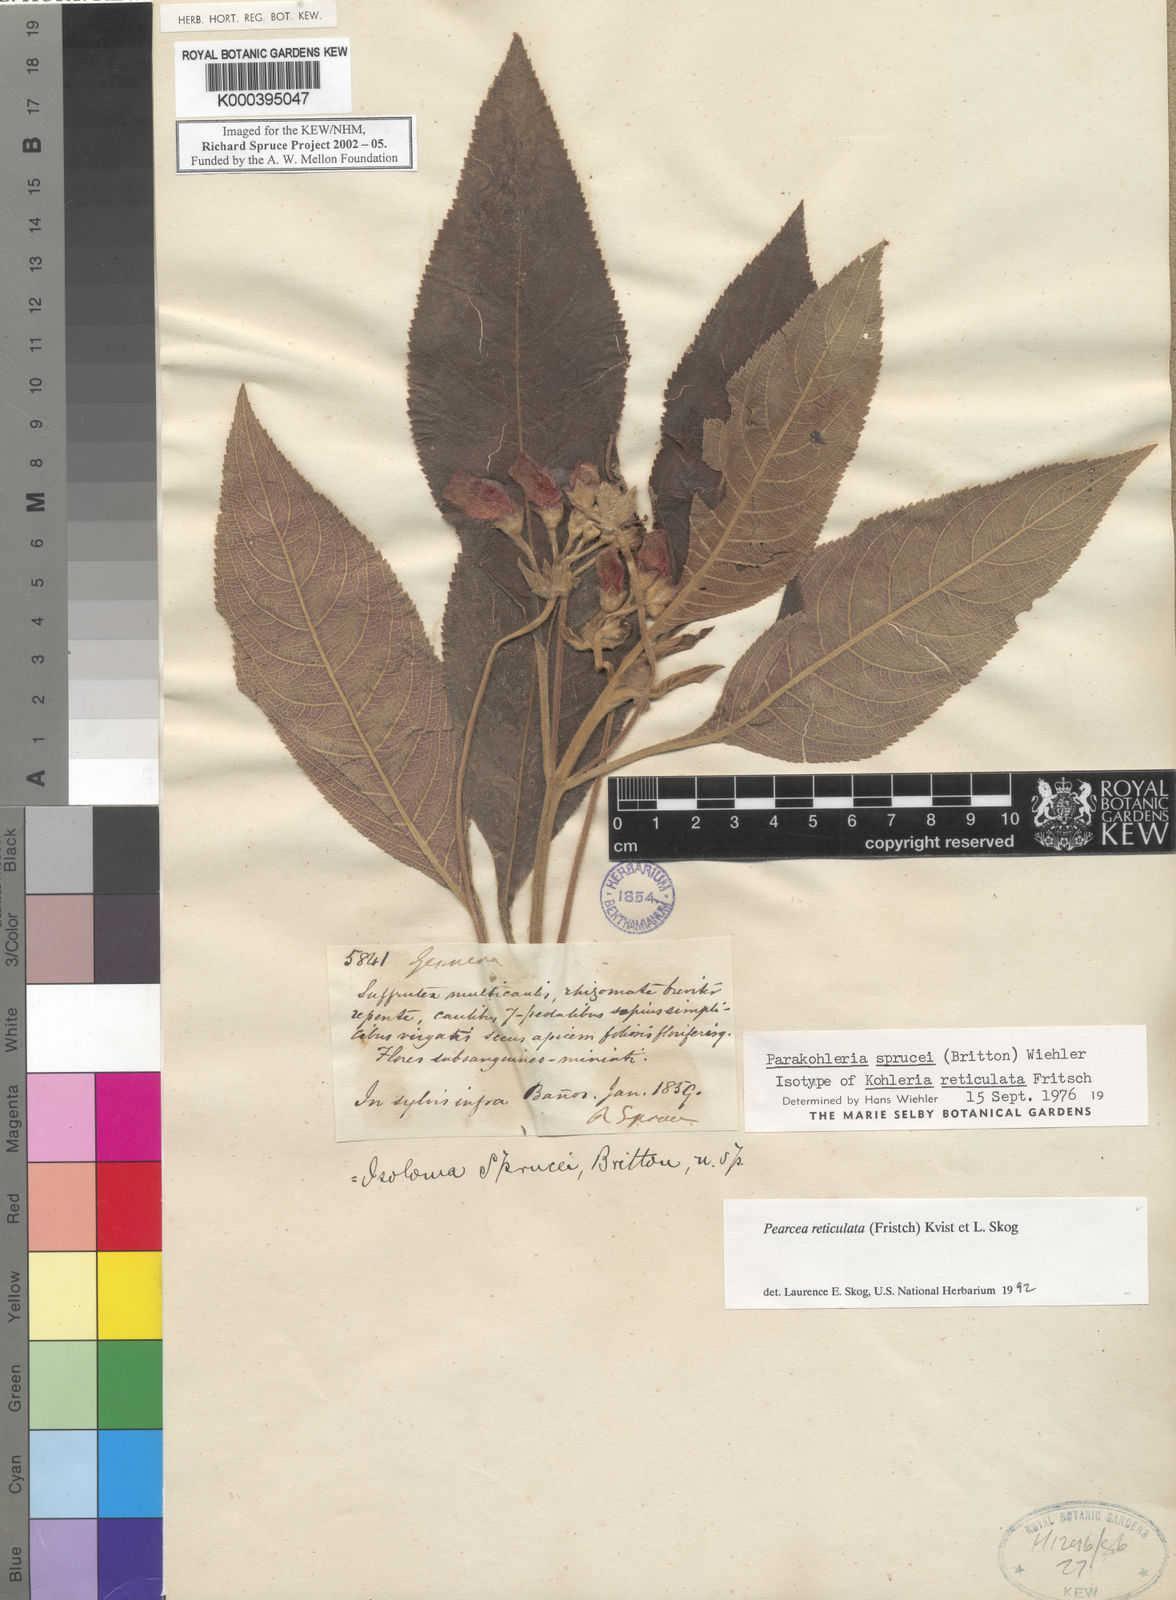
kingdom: Plantae
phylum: Tracheophyta
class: Magnoliopsida
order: Lamiales
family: Gesneriaceae
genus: Pearcea
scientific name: Pearcea reticulata
